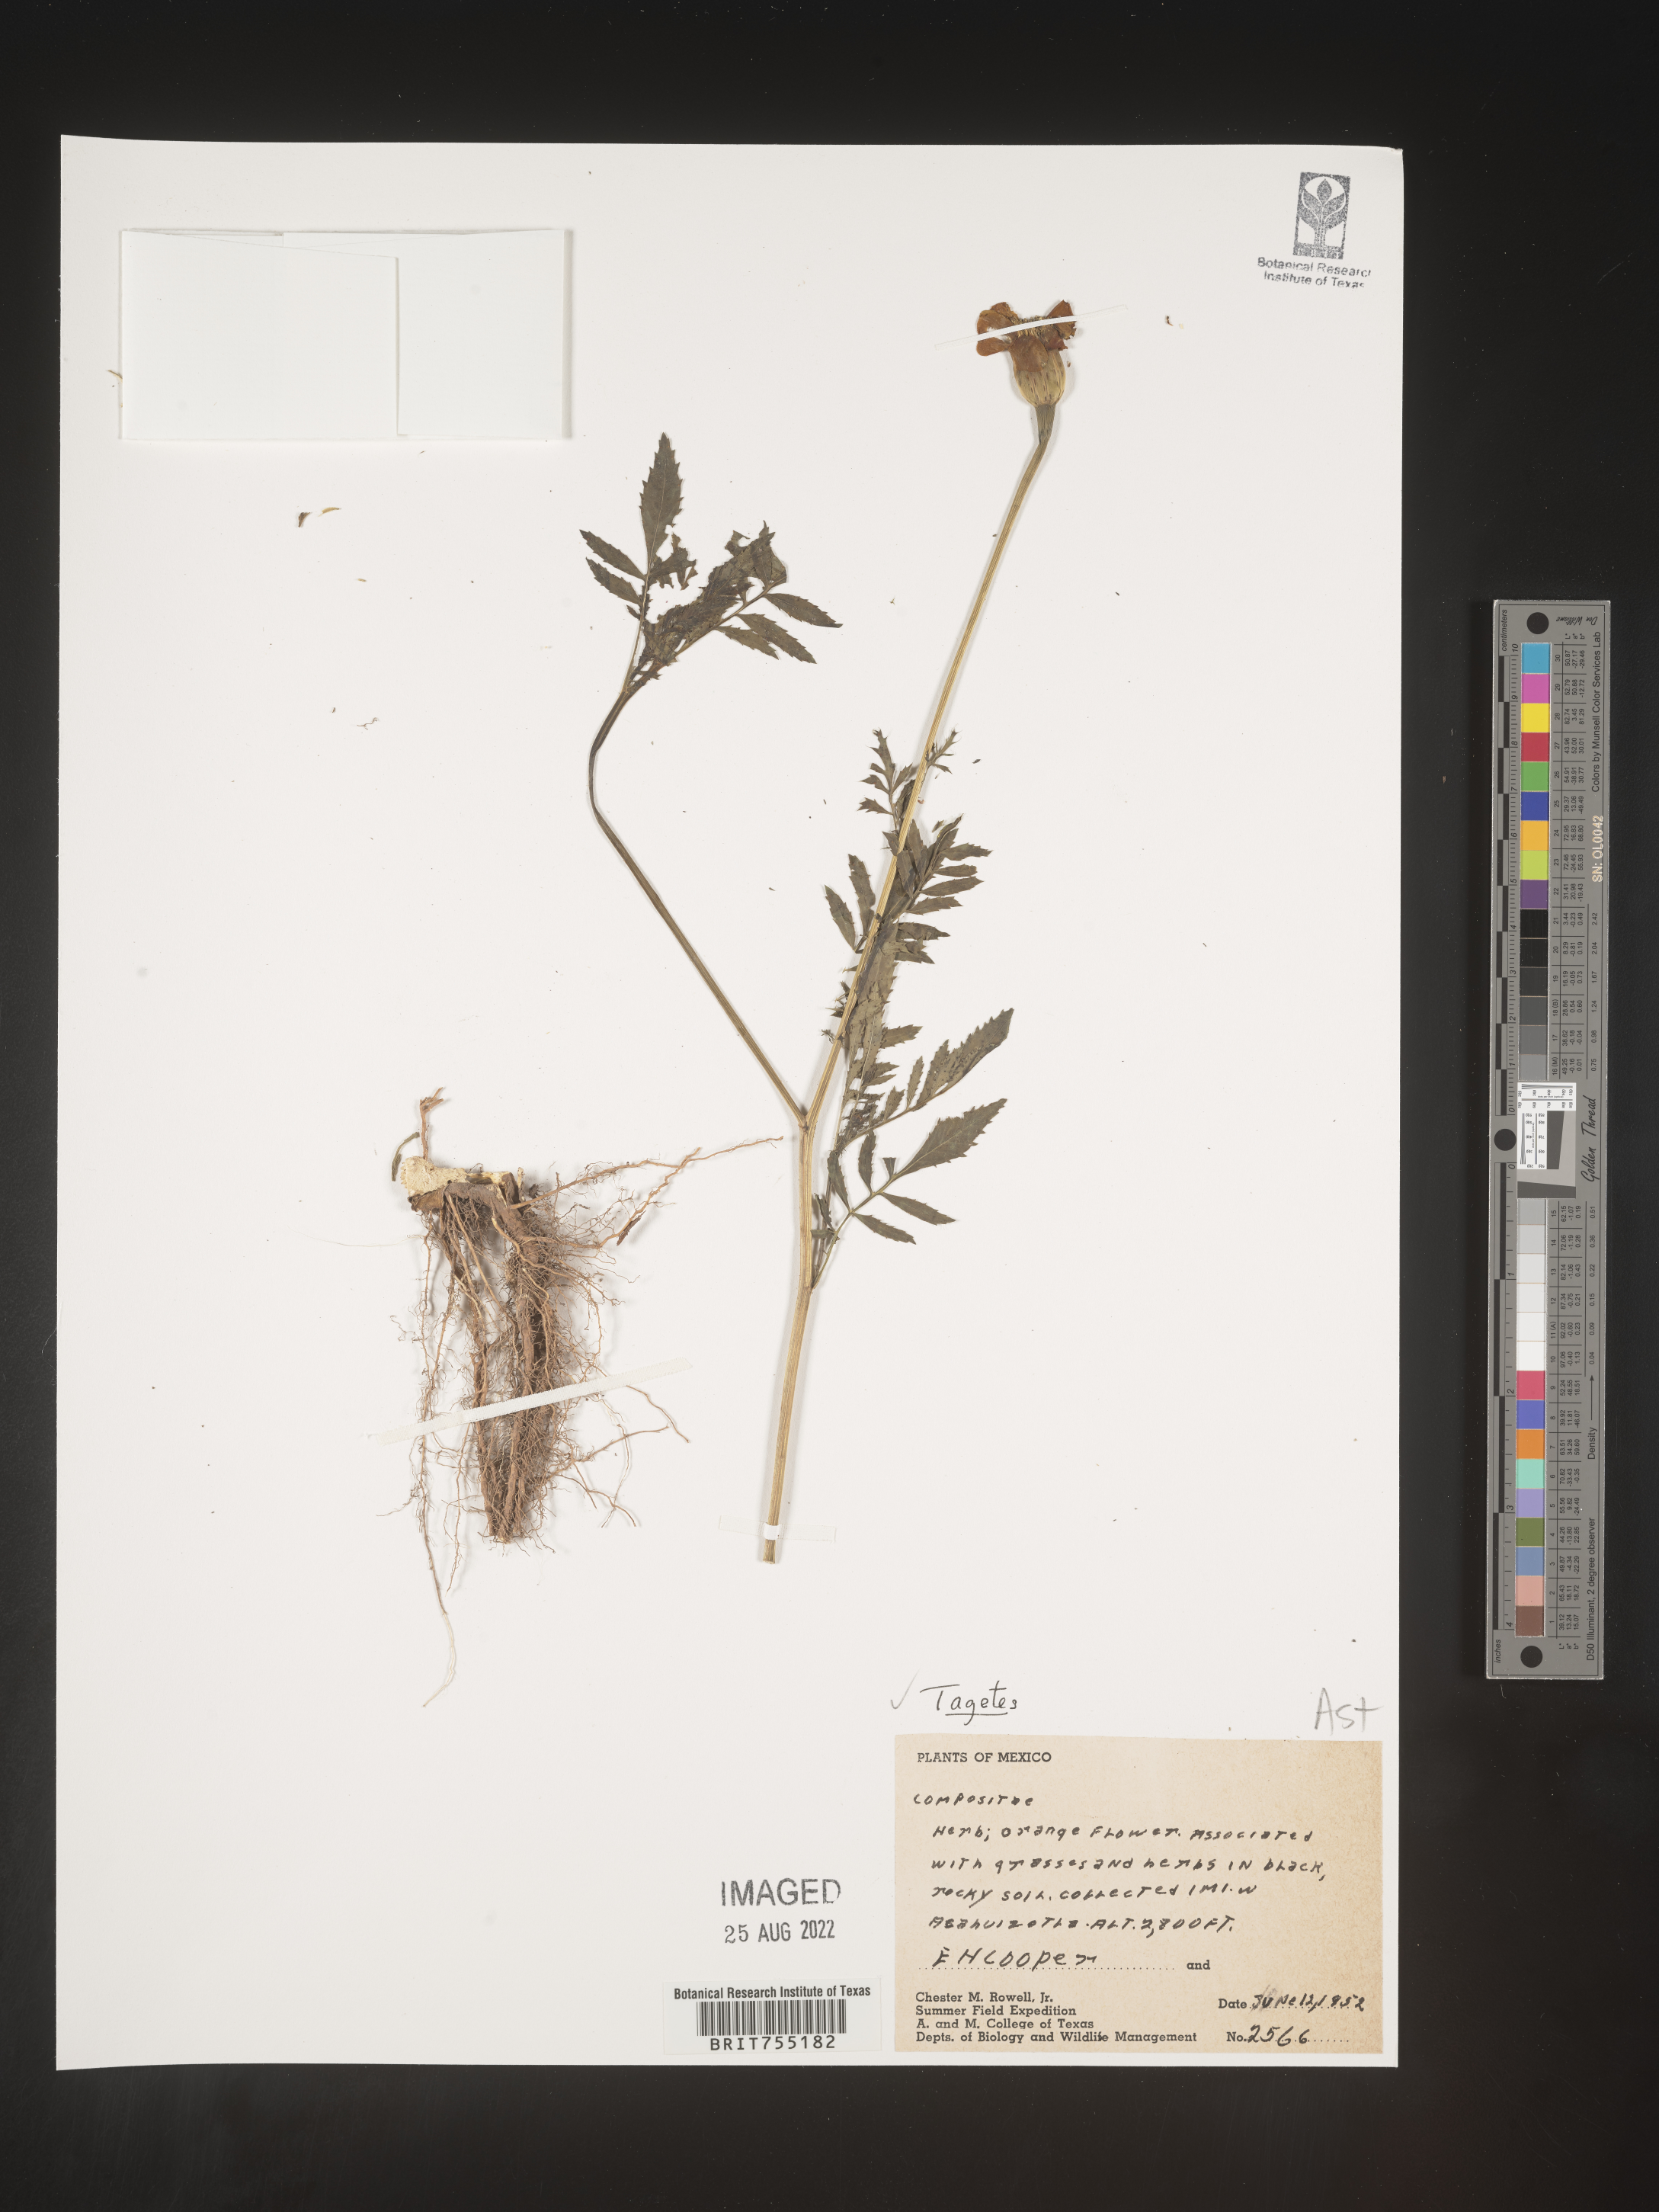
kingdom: Plantae
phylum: Tracheophyta
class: Magnoliopsida
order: Asterales
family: Asteraceae
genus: Tagetes
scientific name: Tagetes
